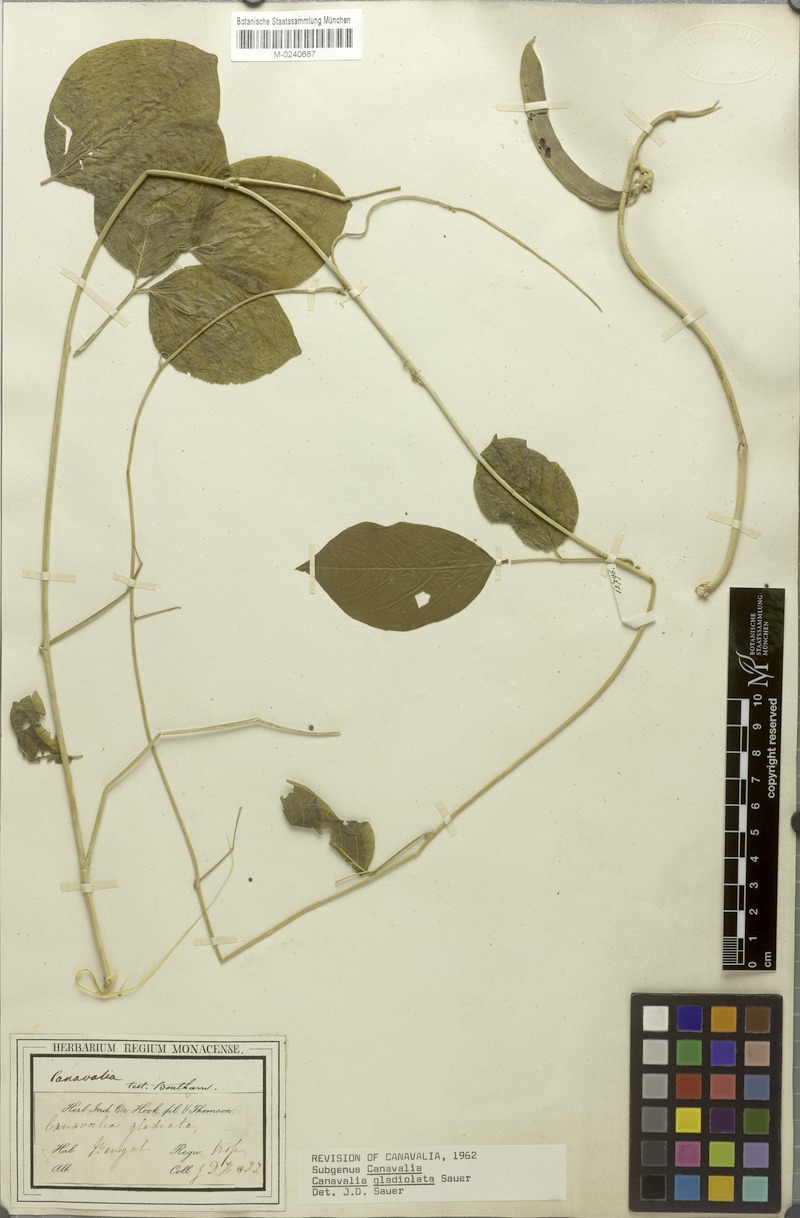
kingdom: Plantae
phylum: Tracheophyta
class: Magnoliopsida
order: Fabales
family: Fabaceae
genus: Canavalia
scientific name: Canavalia gladiata
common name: Scimitar-bean
